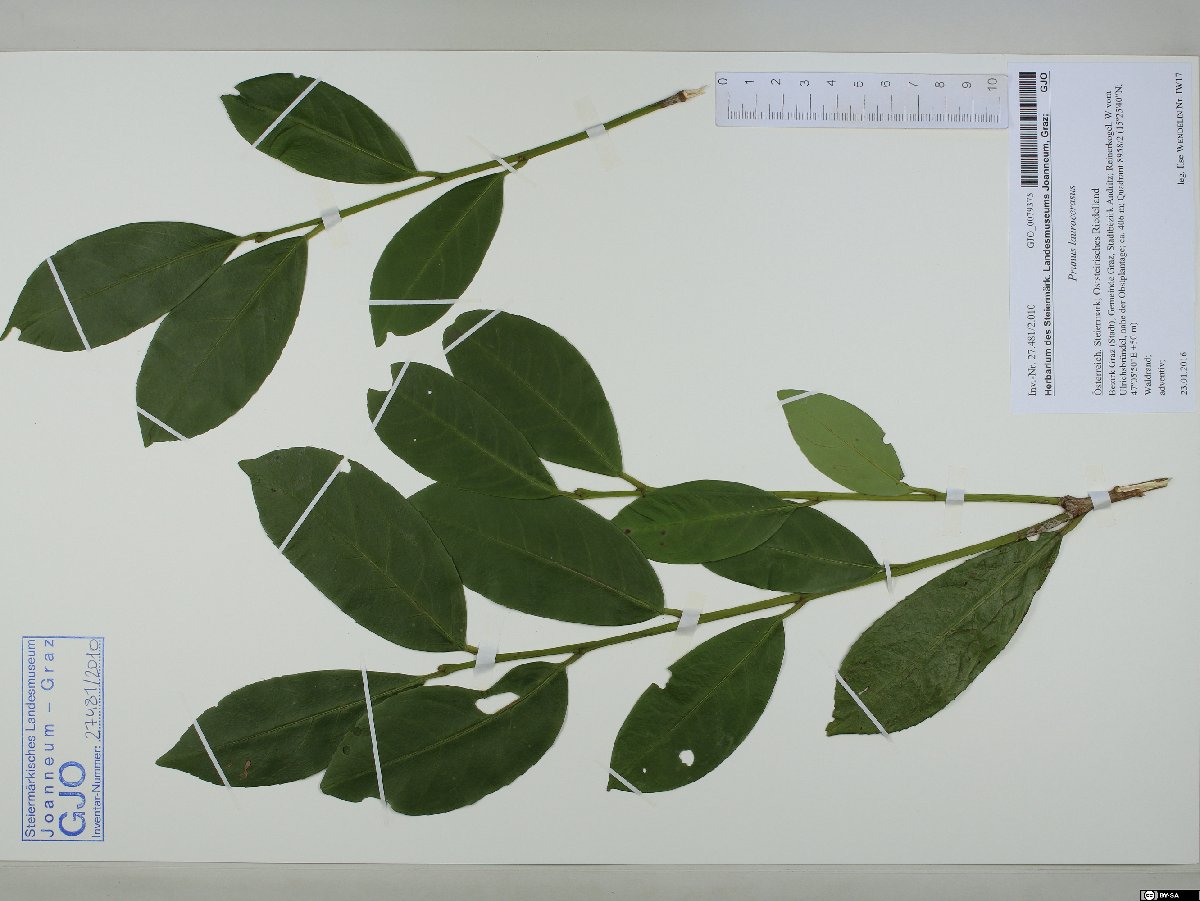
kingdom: Plantae
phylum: Tracheophyta
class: Magnoliopsida
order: Rosales
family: Rosaceae
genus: Prunus
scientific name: Prunus laurocerasus
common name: Cherry laurel
